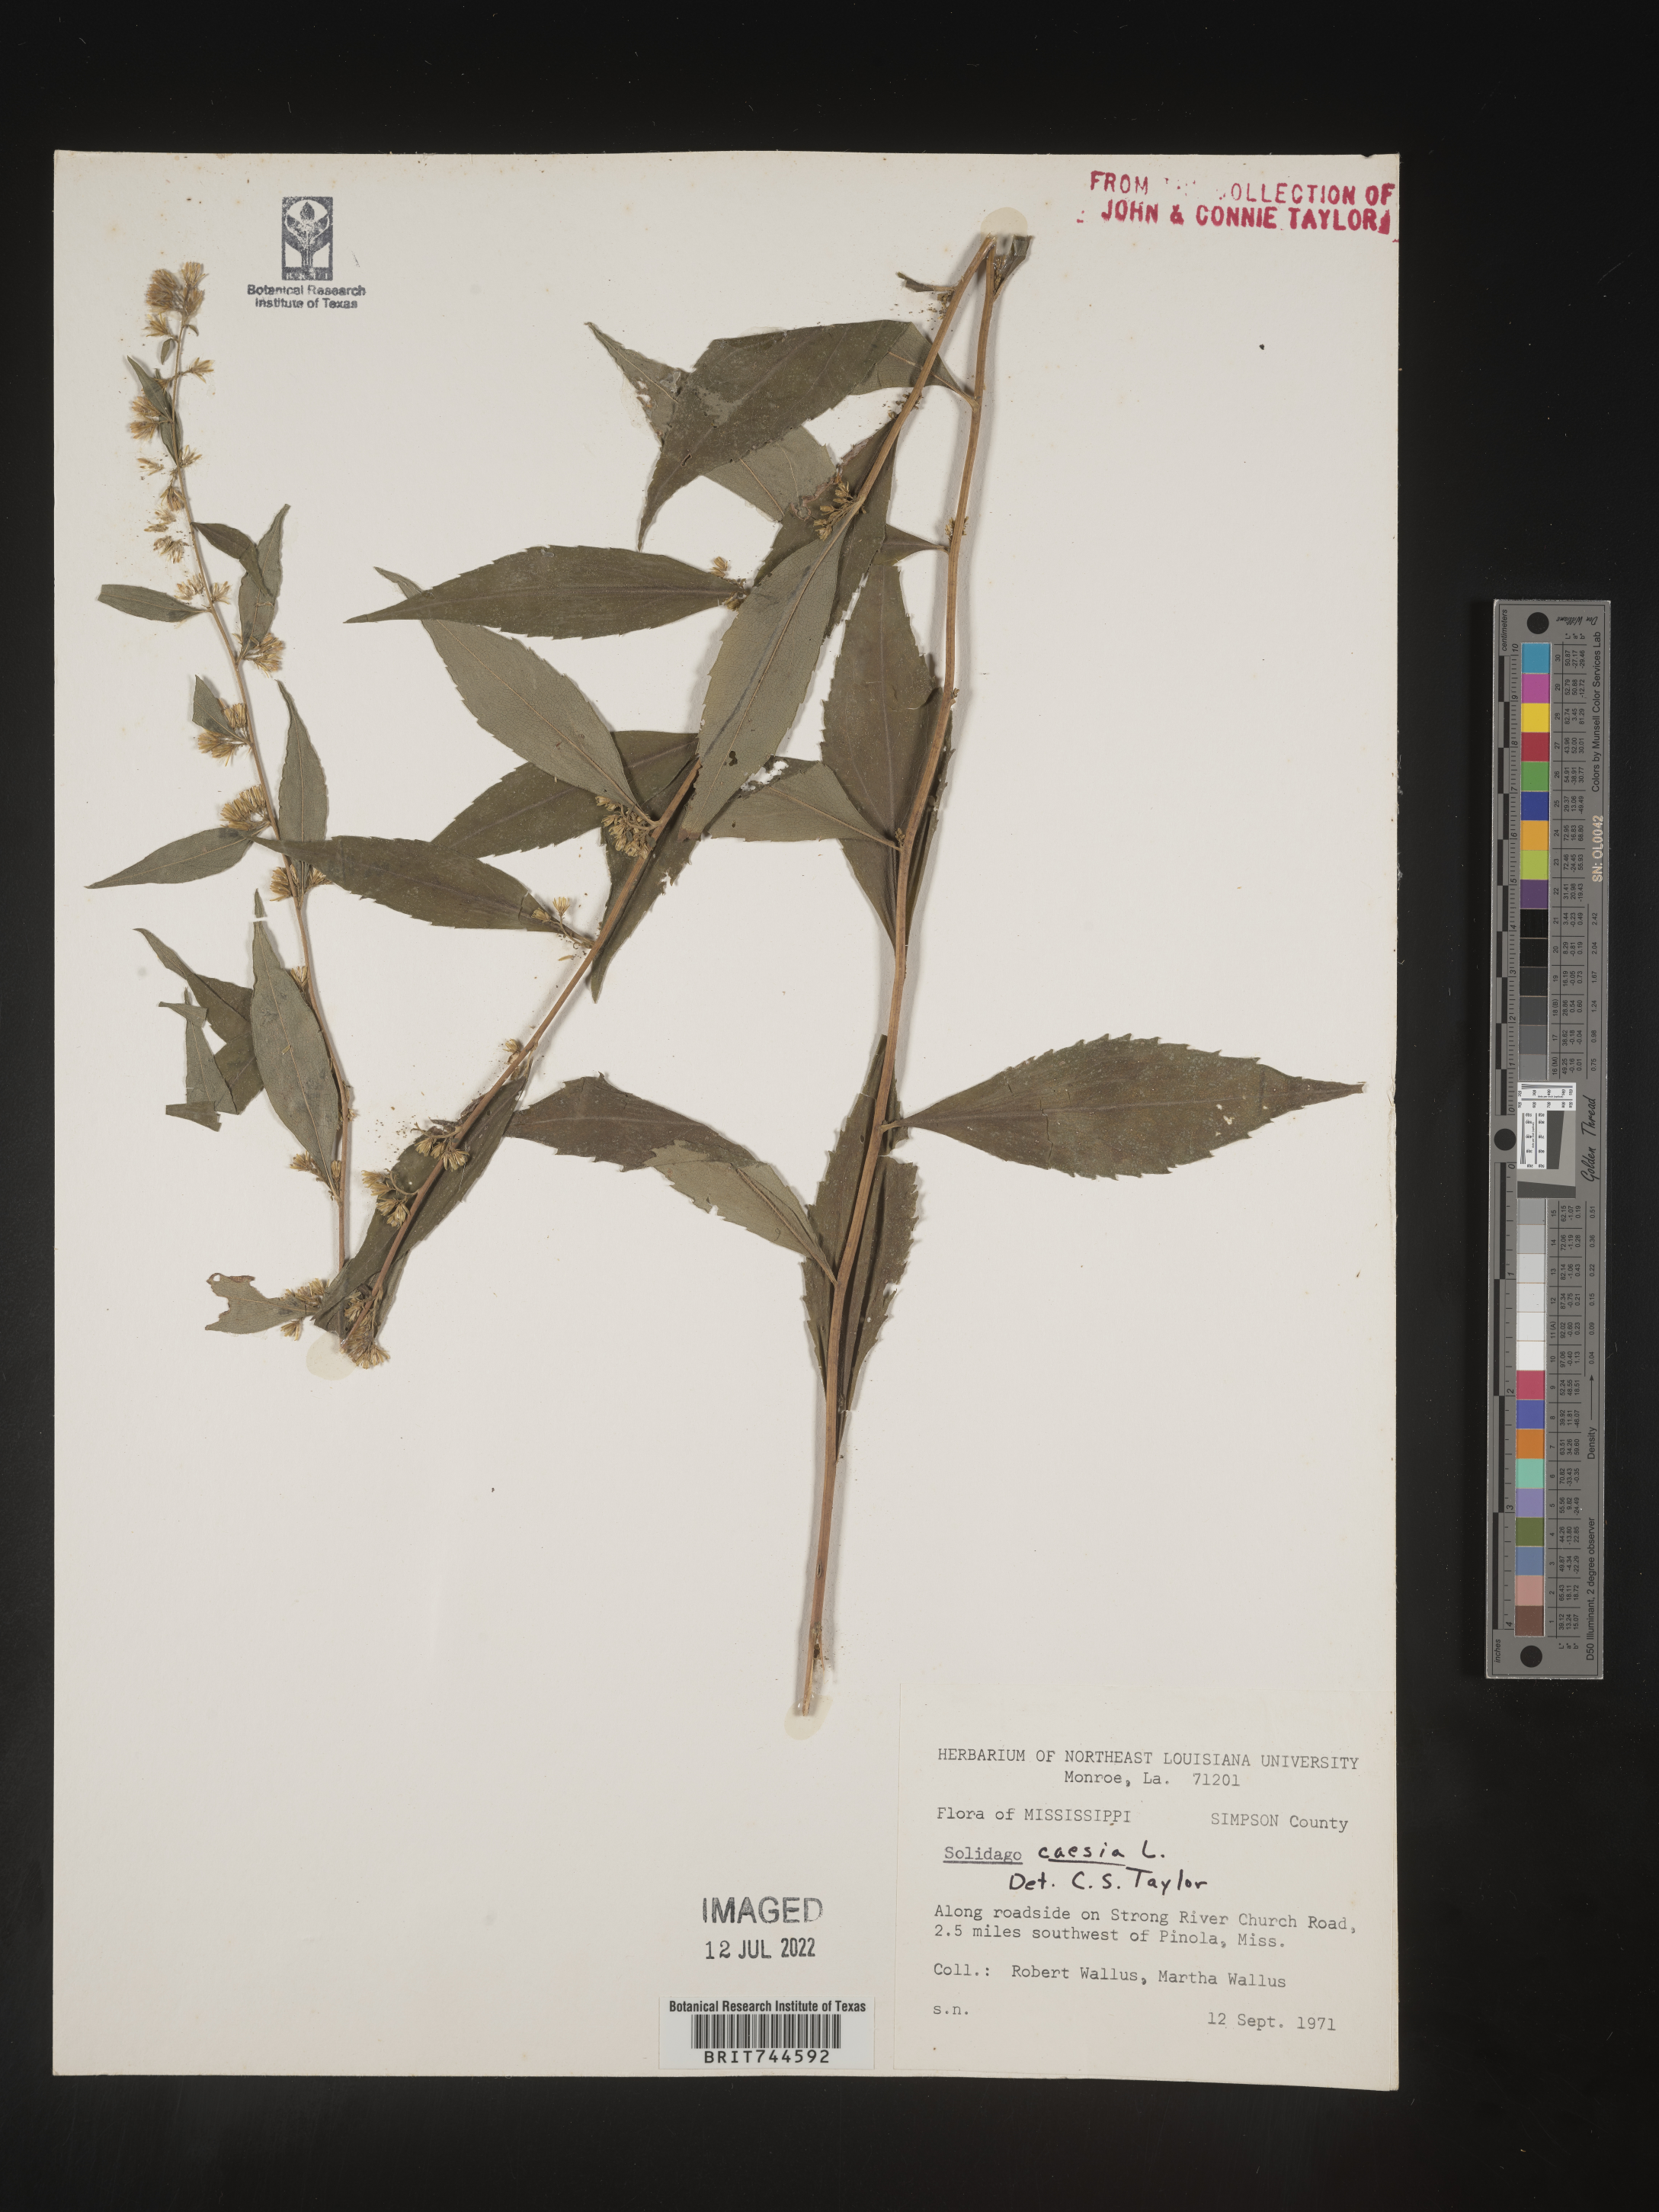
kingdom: Plantae
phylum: Tracheophyta
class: Magnoliopsida
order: Asterales
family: Asteraceae
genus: Solidago
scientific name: Solidago caesia
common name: Woodland goldenrod
